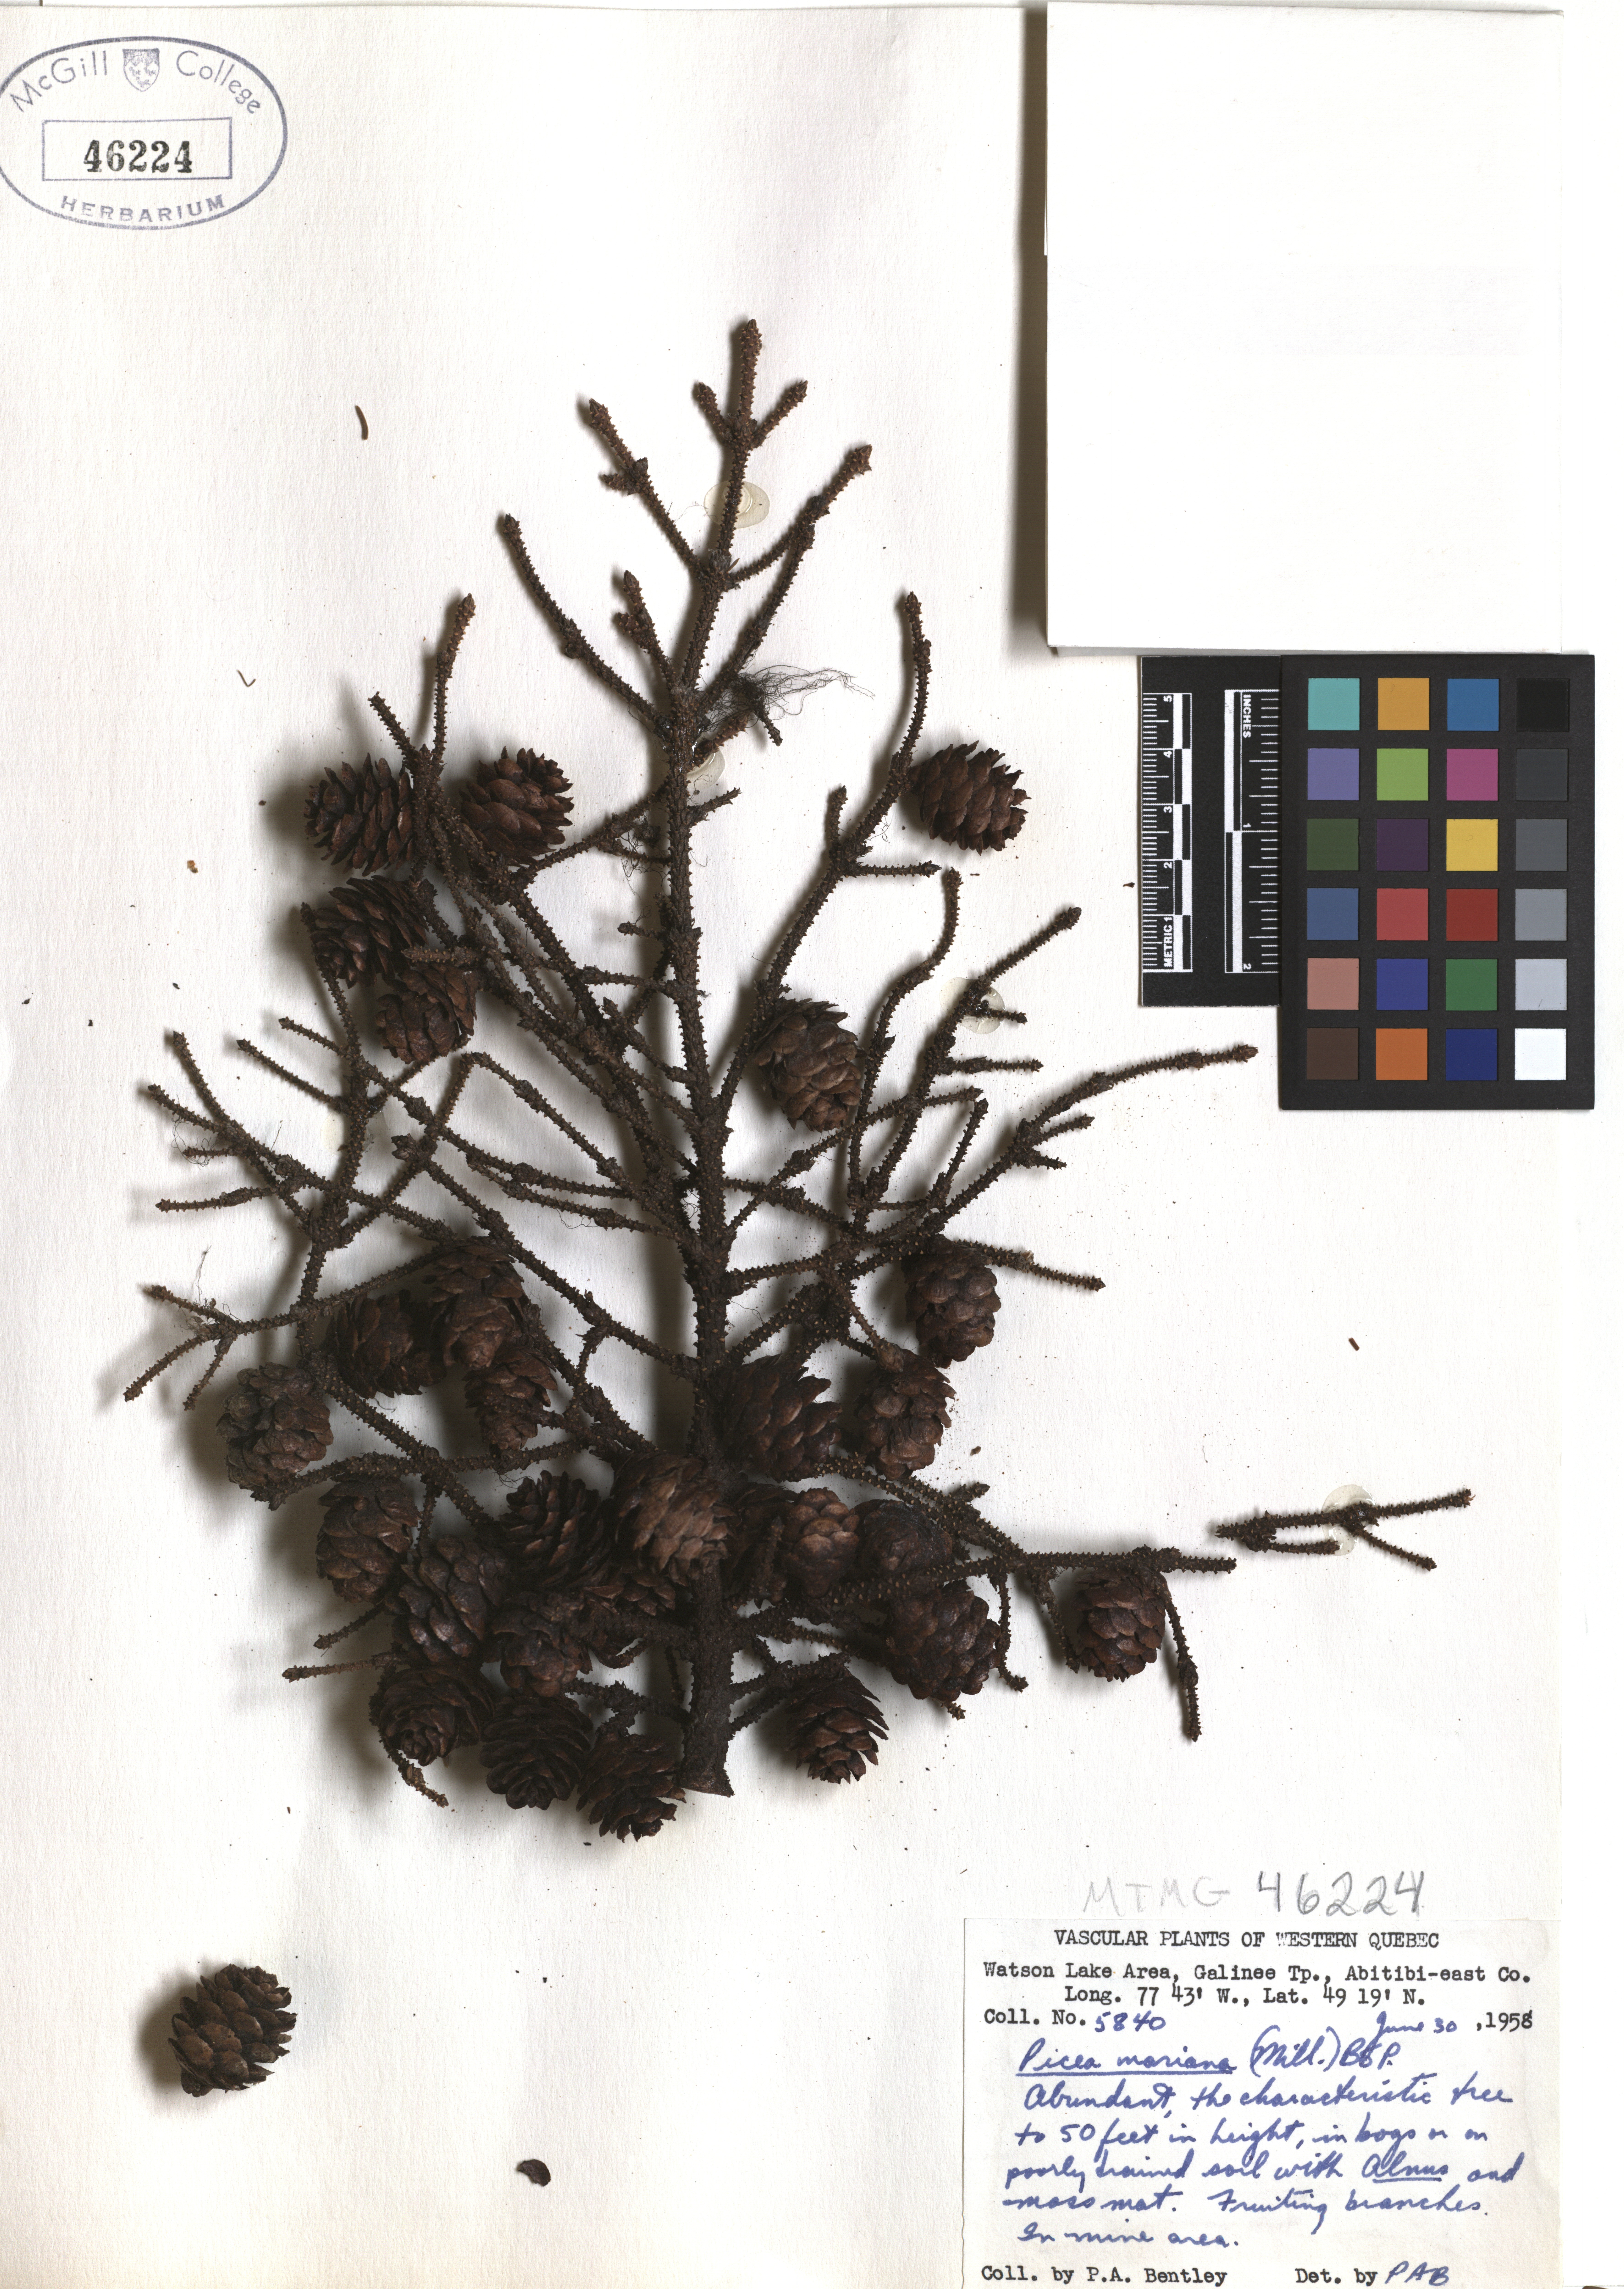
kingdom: Plantae
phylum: Tracheophyta
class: Pinopsida
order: Pinales
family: Pinaceae
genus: Picea
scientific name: Picea mariana
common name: Black spruce
